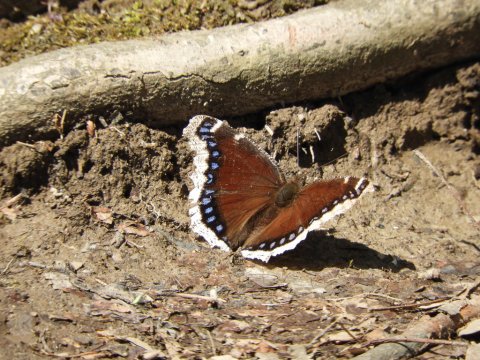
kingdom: Animalia
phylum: Arthropoda
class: Insecta
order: Lepidoptera
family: Nymphalidae
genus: Nymphalis
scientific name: Nymphalis antiopa
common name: Mourning Cloak
